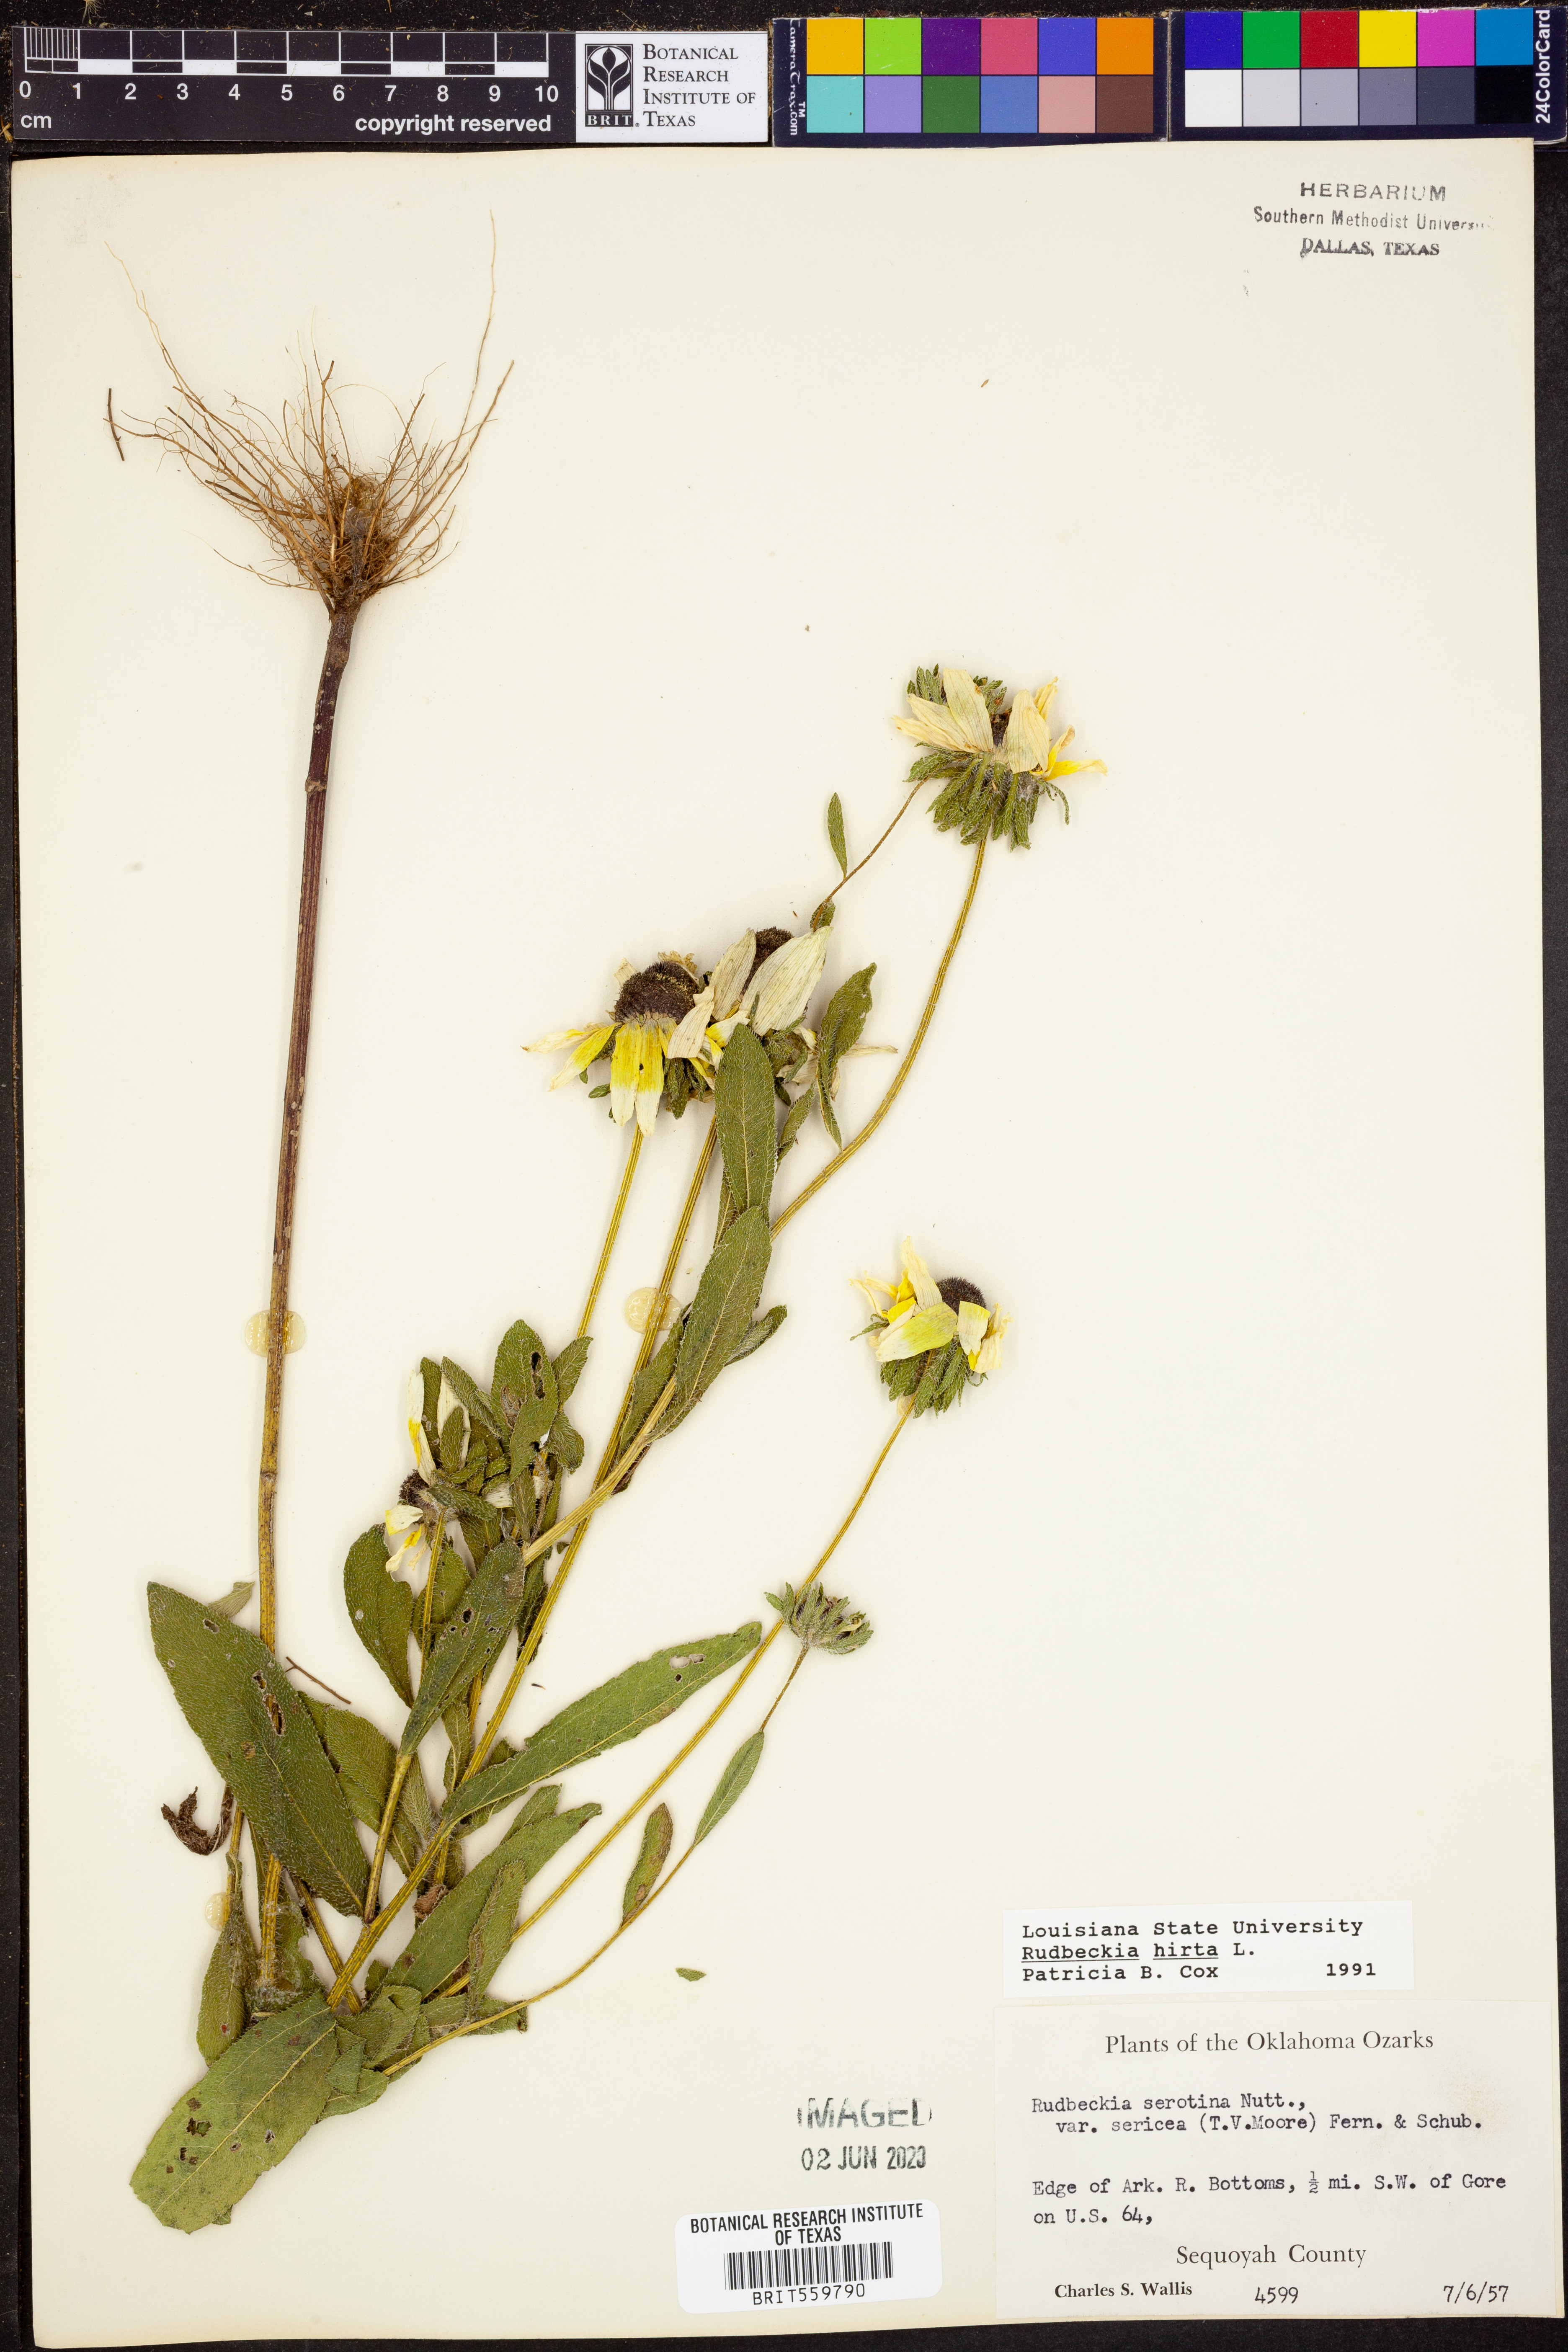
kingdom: Plantae
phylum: Tracheophyta
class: Magnoliopsida
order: Asterales
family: Asteraceae
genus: Rudbeckia
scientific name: Rudbeckia hirta
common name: Black-eyed-susan
